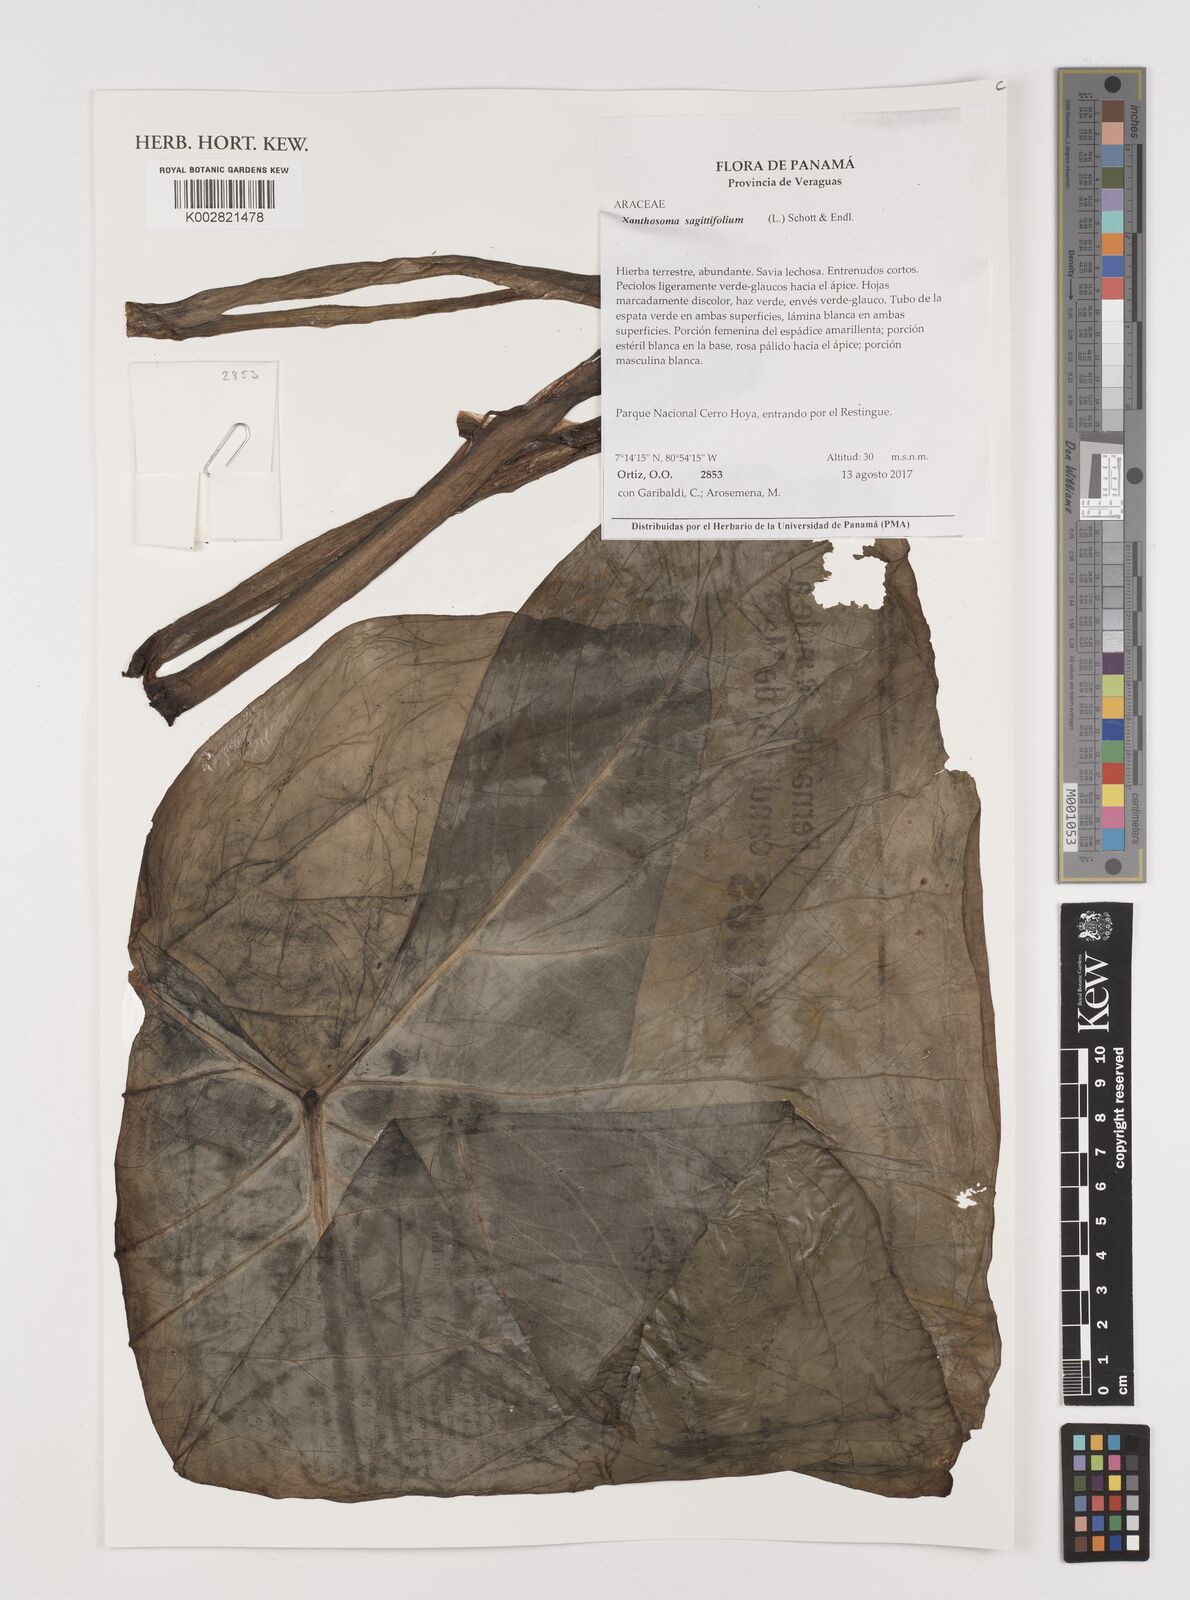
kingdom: Plantae
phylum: Tracheophyta
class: Liliopsida
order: Alismatales
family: Araceae
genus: Xanthosoma
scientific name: Xanthosoma sagittifolium
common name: Arrowleaf elephant's ear
